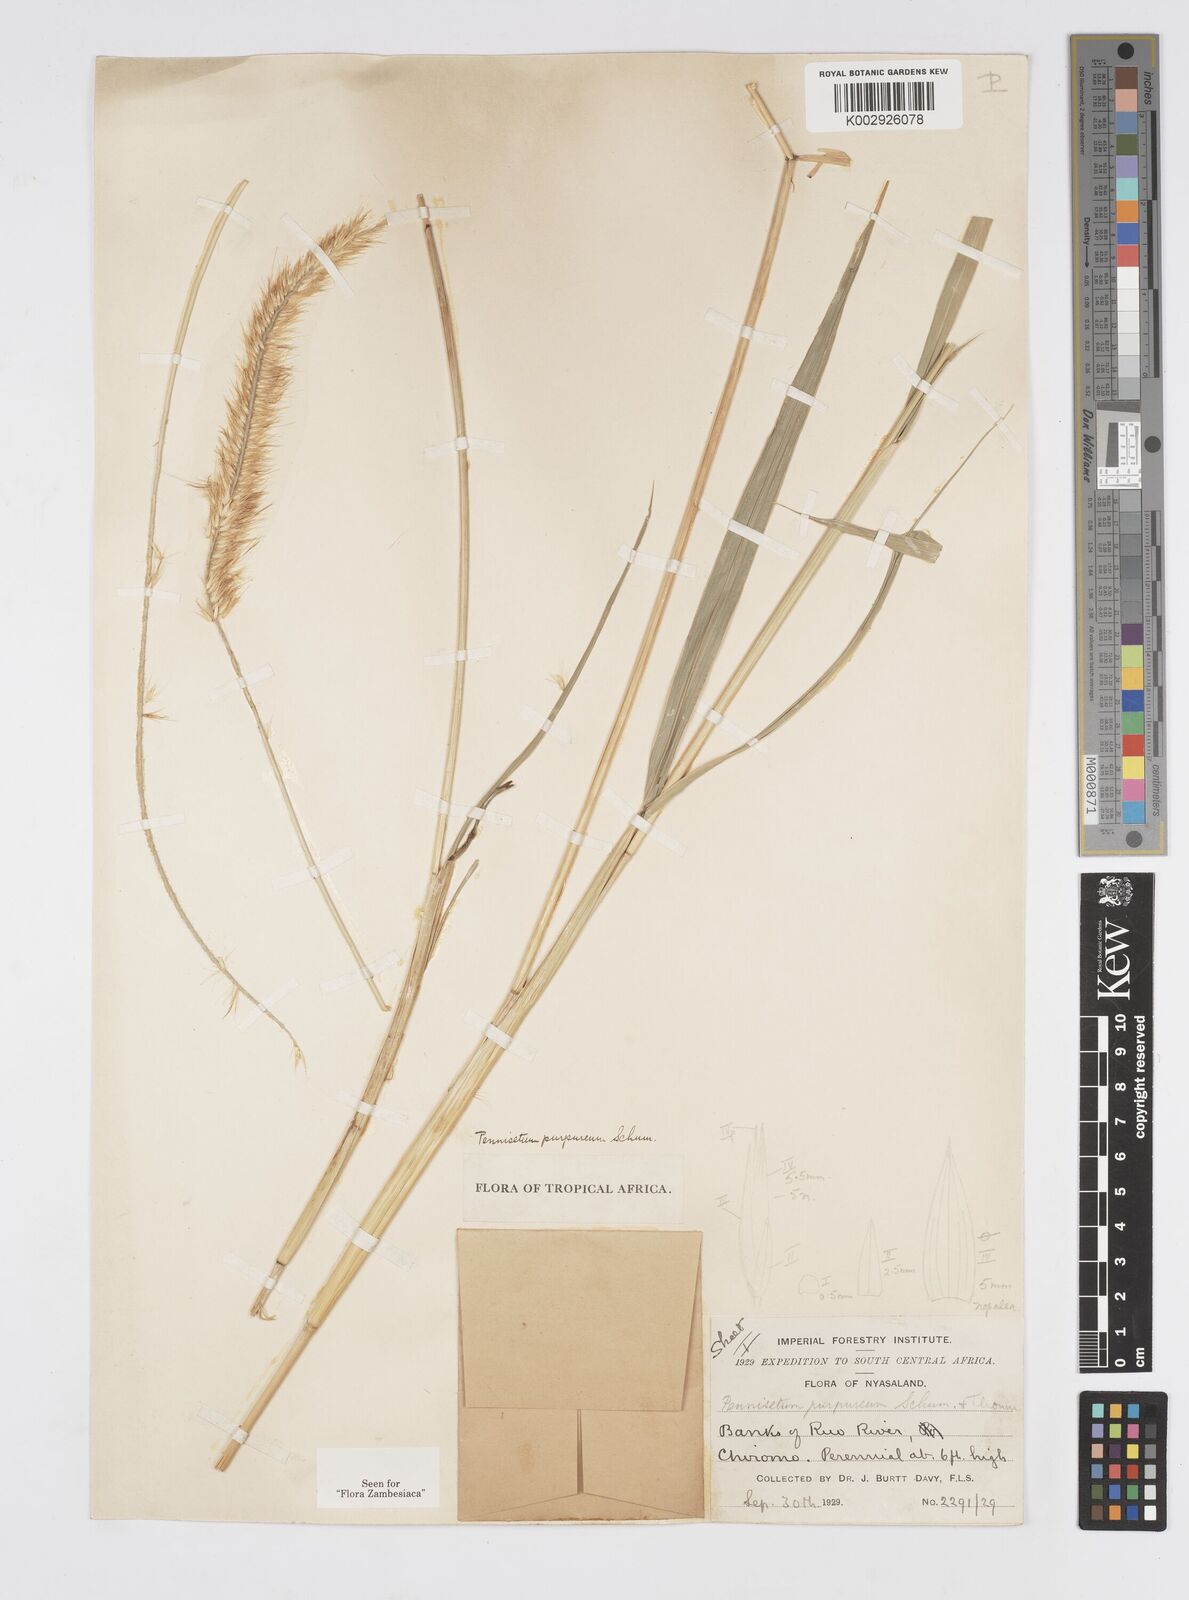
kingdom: Plantae
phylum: Tracheophyta
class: Liliopsida
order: Poales
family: Poaceae
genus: Cenchrus
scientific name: Cenchrus purpureus
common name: Elephant grass
